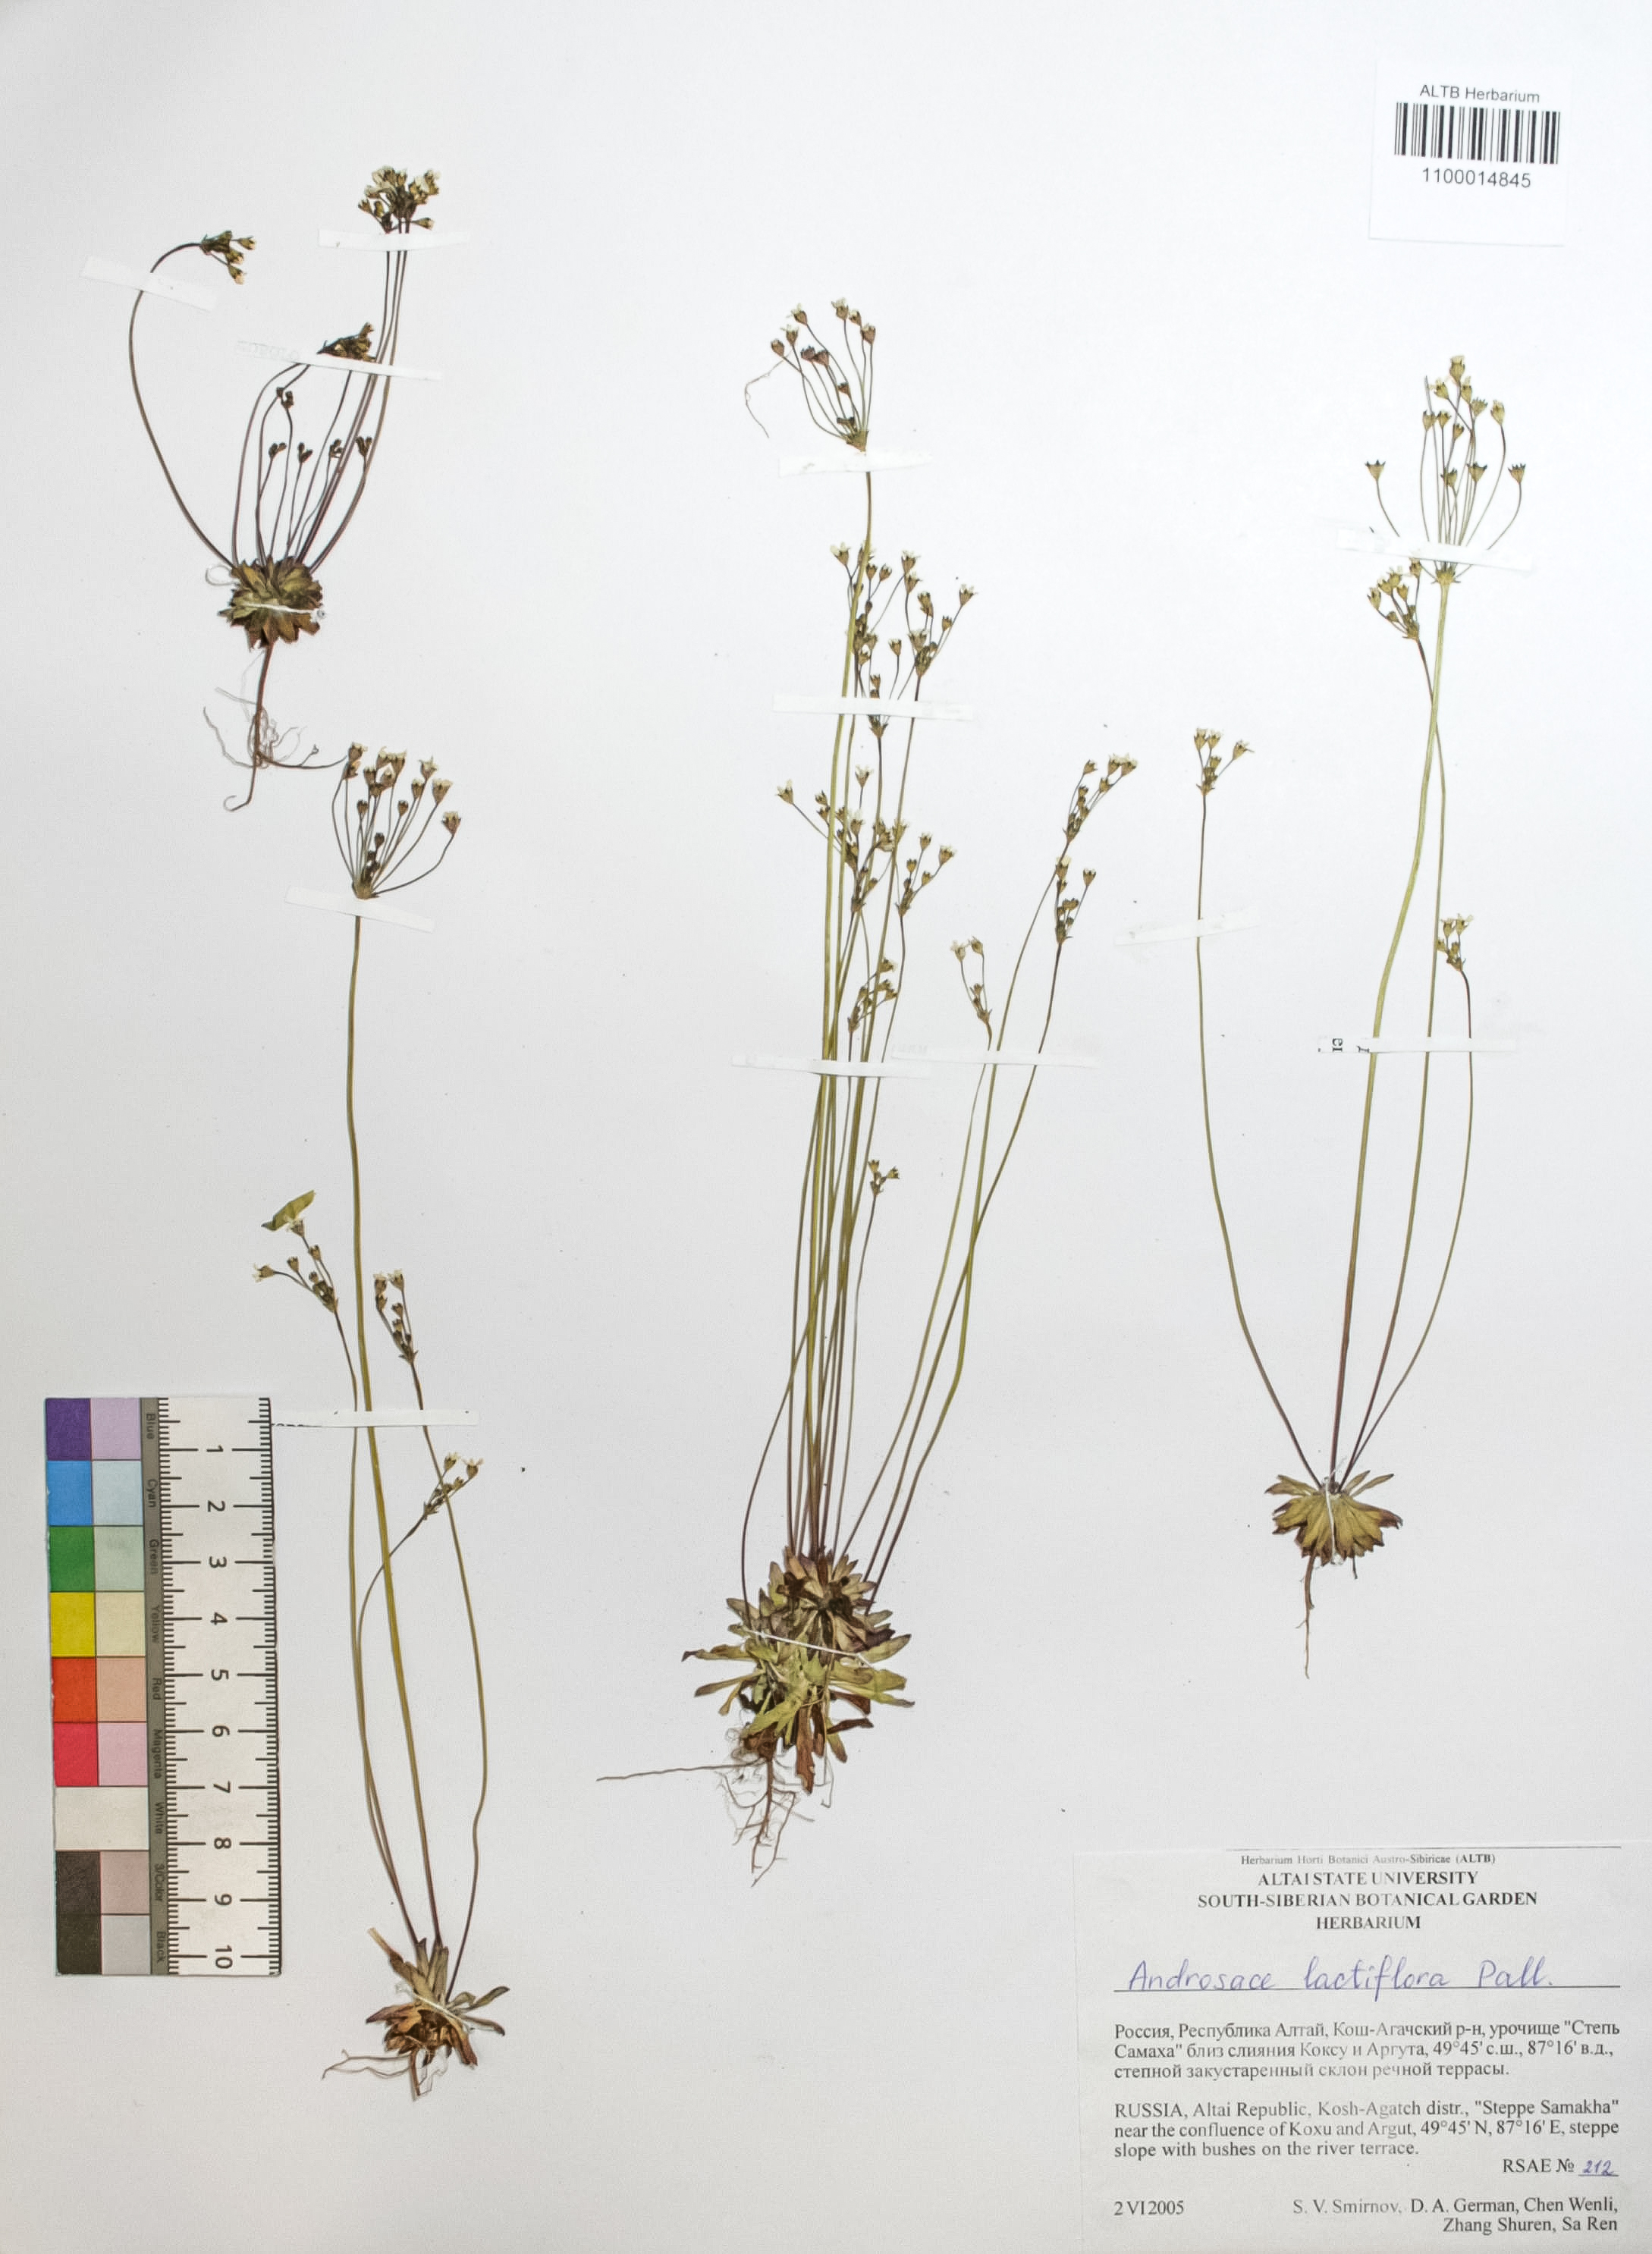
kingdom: Plantae
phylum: Tracheophyta
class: Magnoliopsida
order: Ericales
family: Primulaceae
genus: Androsace
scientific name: Androsace lactiflora
